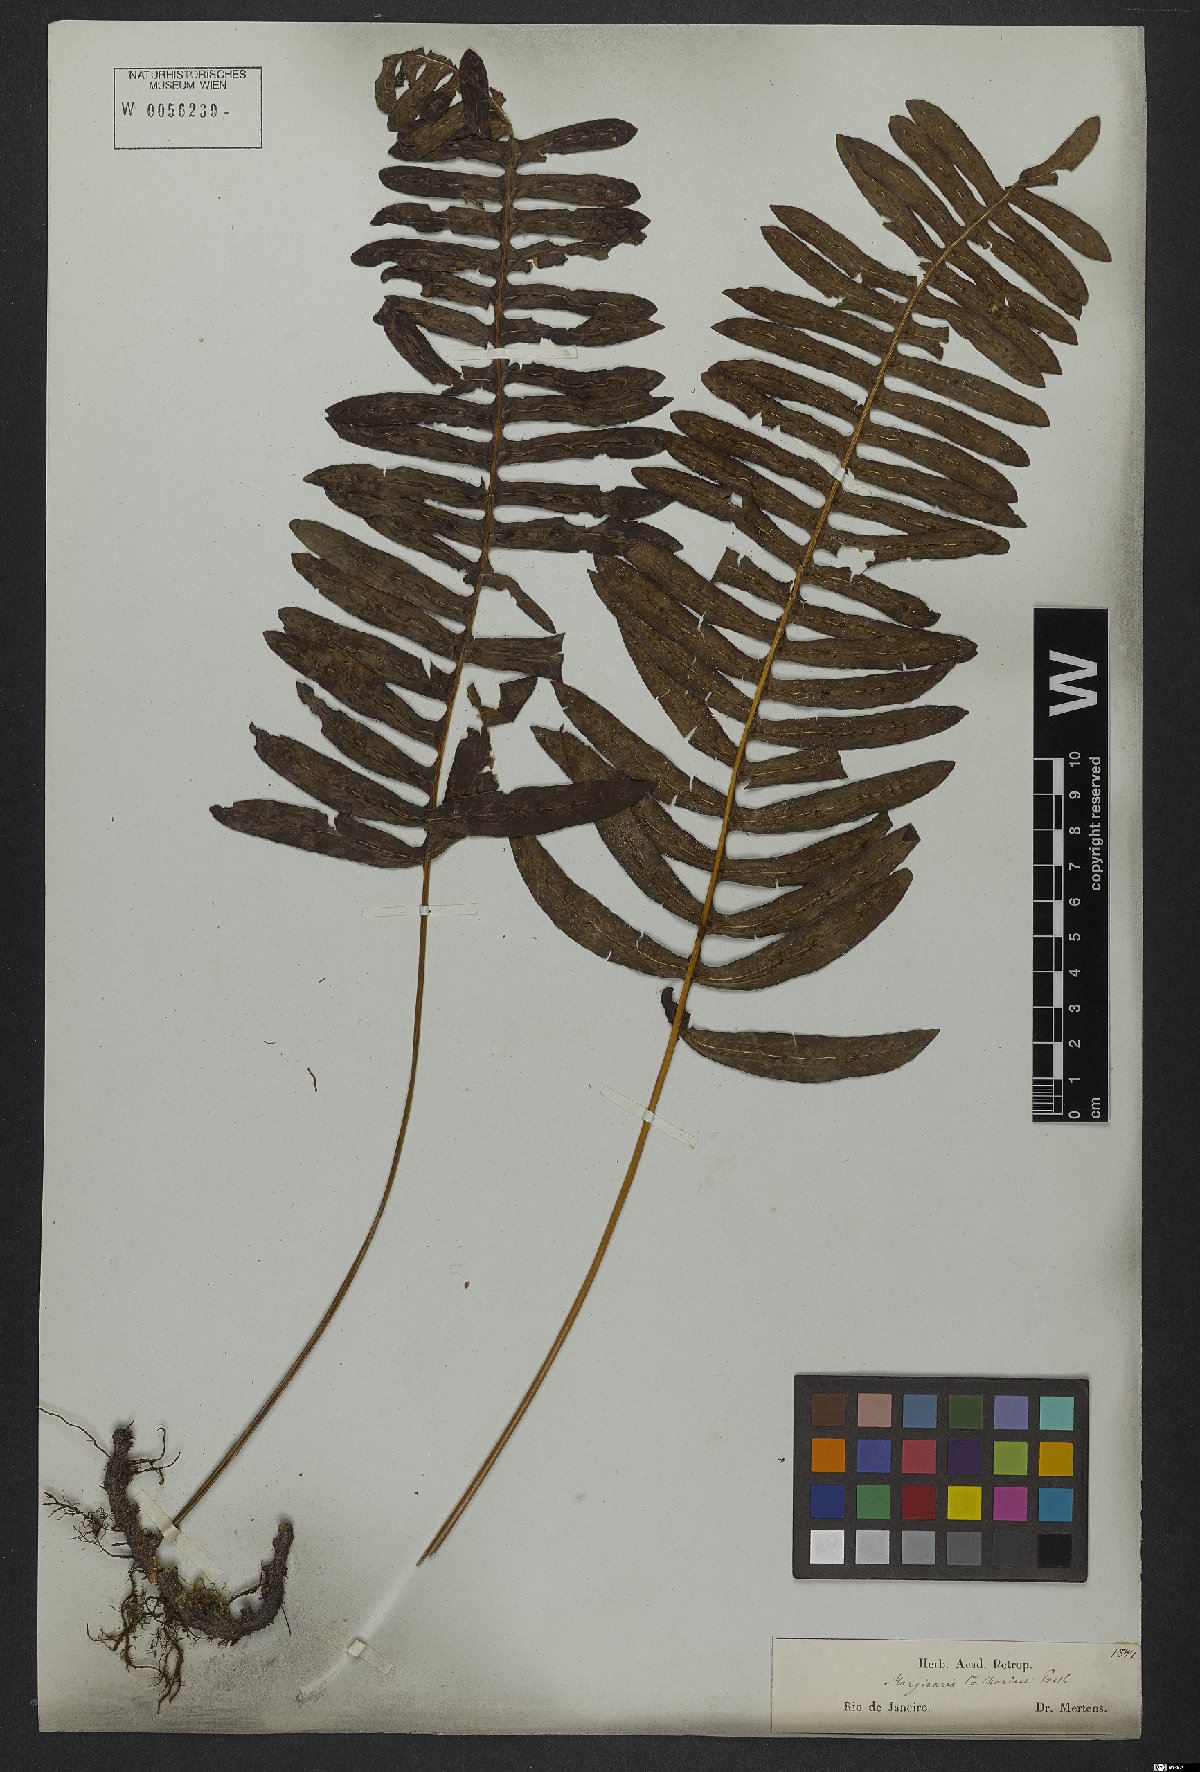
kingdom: Plantae
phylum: Tracheophyta
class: Polypodiopsida
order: Polypodiales
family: Polypodiaceae
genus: Serpocaulon
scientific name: Serpocaulon catharinae
